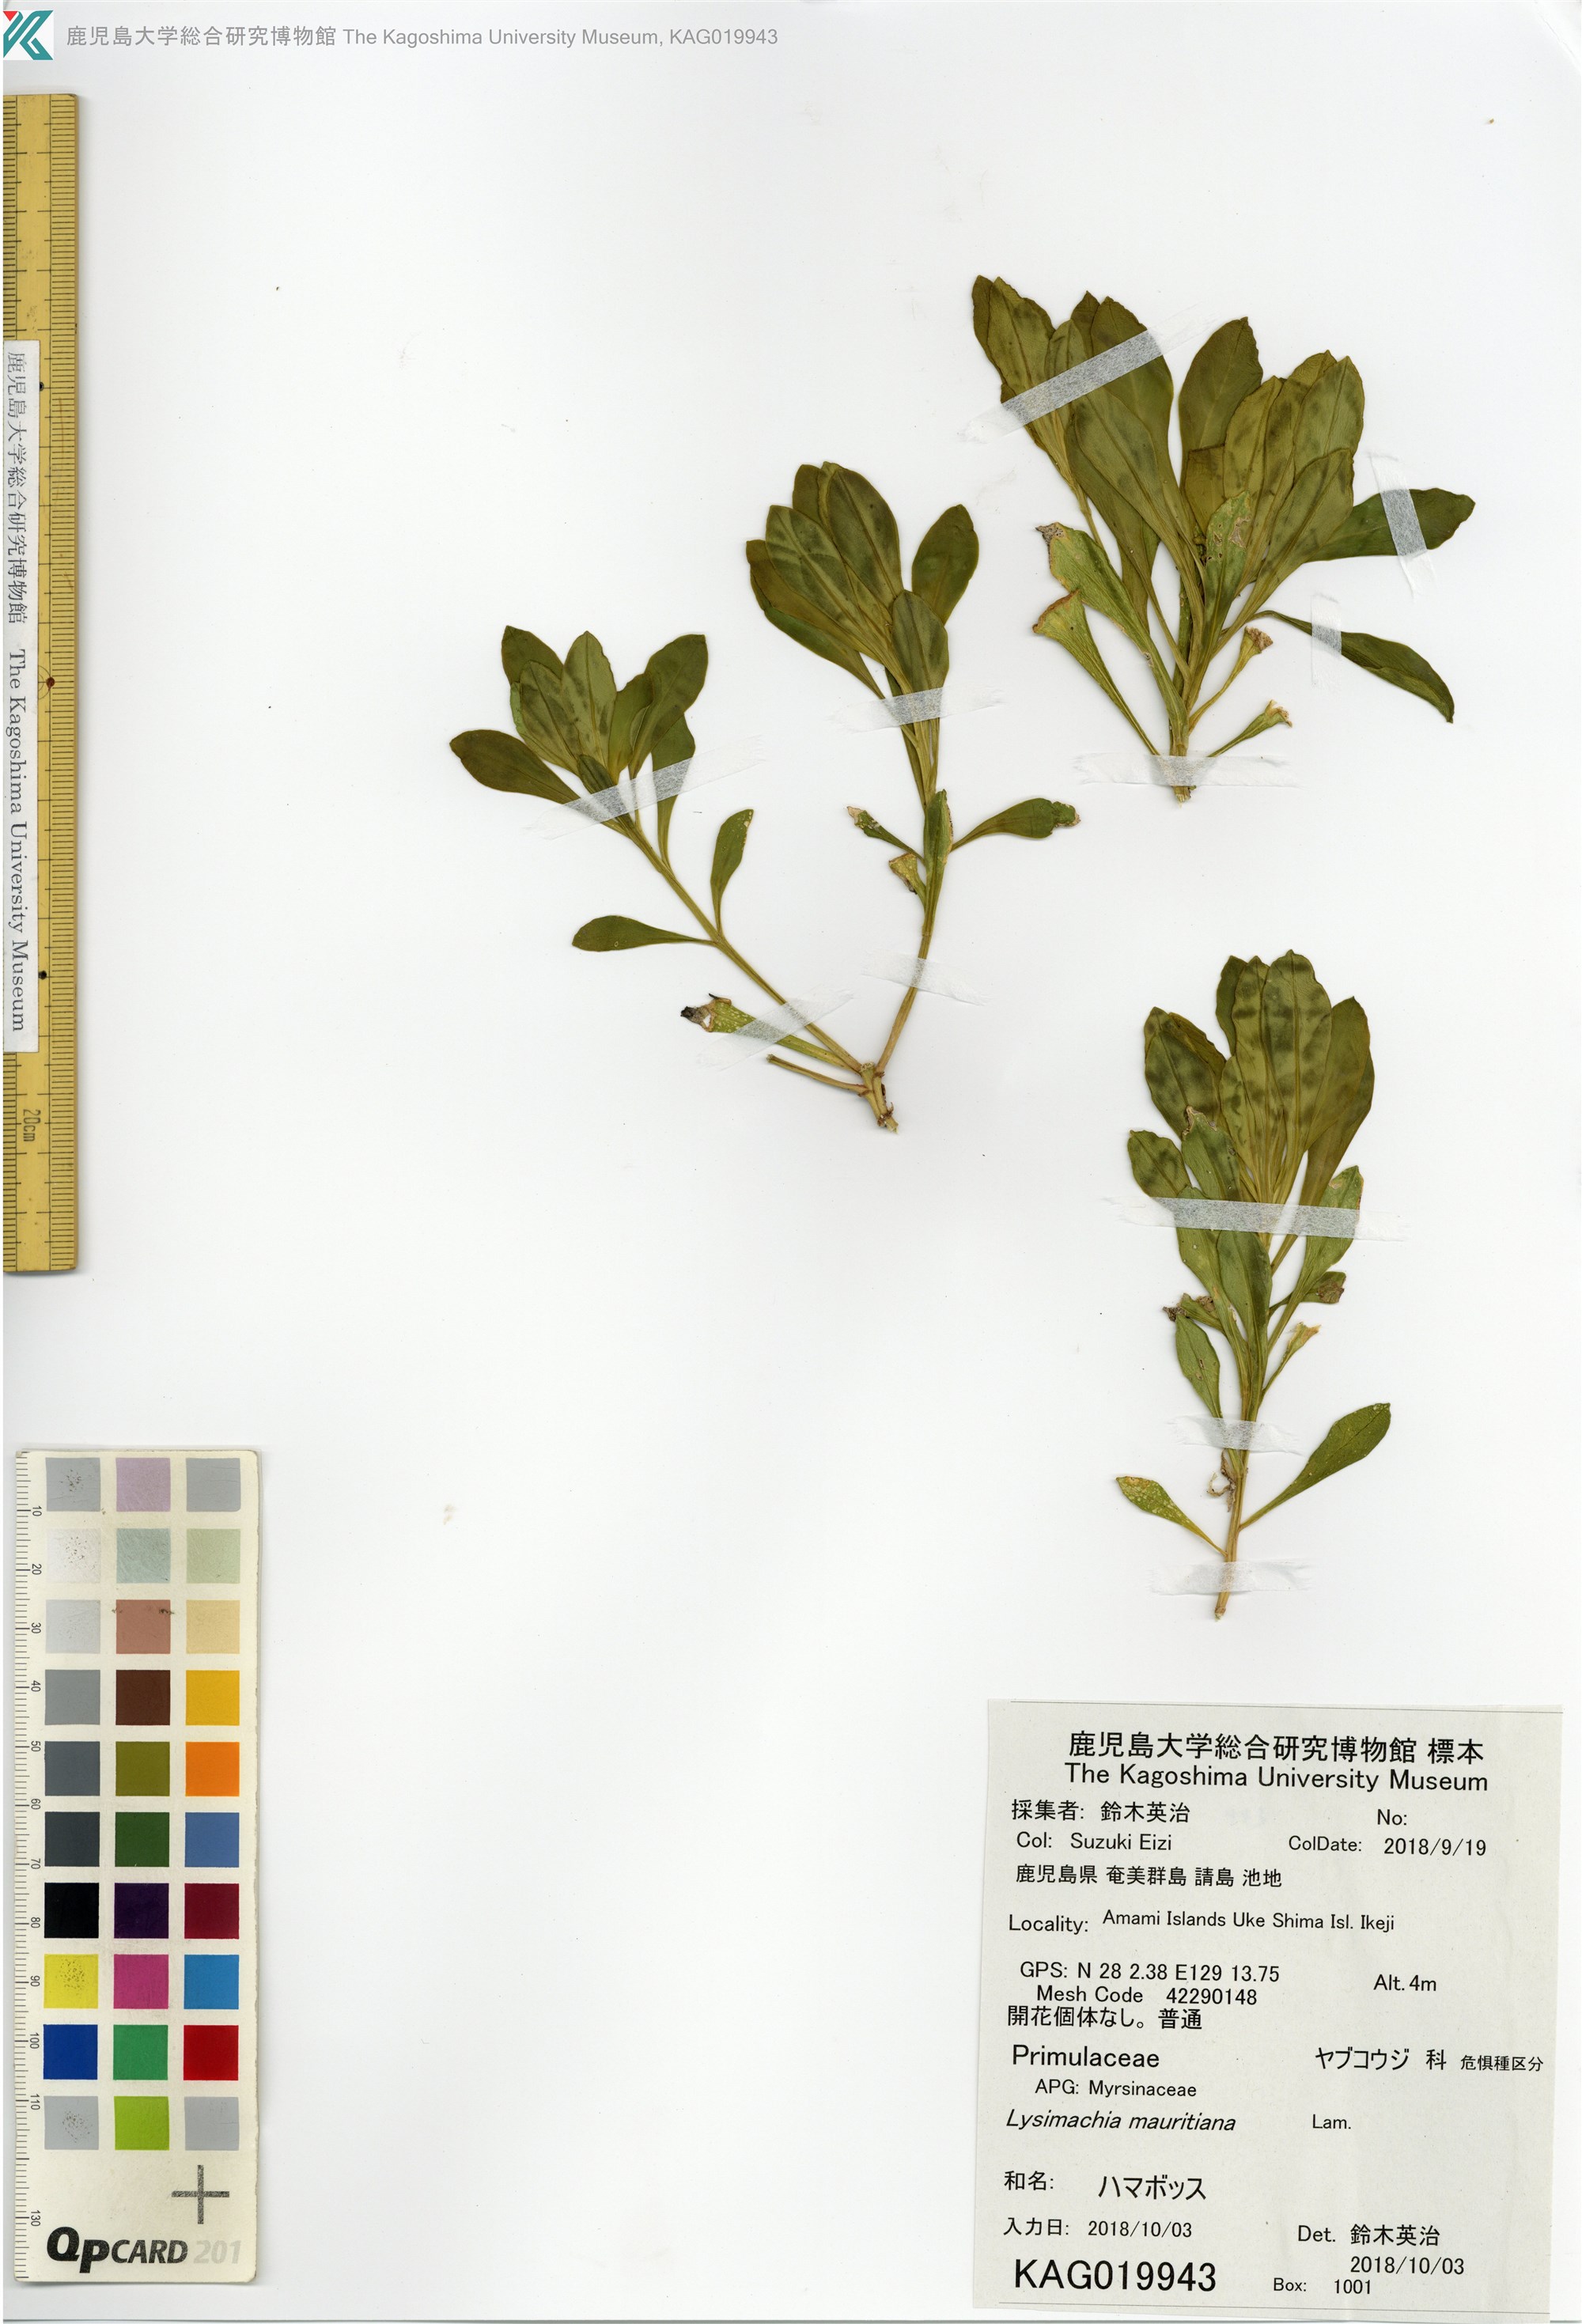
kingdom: Plantae
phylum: Tracheophyta
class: Magnoliopsida
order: Ericales
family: Primulaceae
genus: Lysimachia
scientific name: Lysimachia mauritiana
